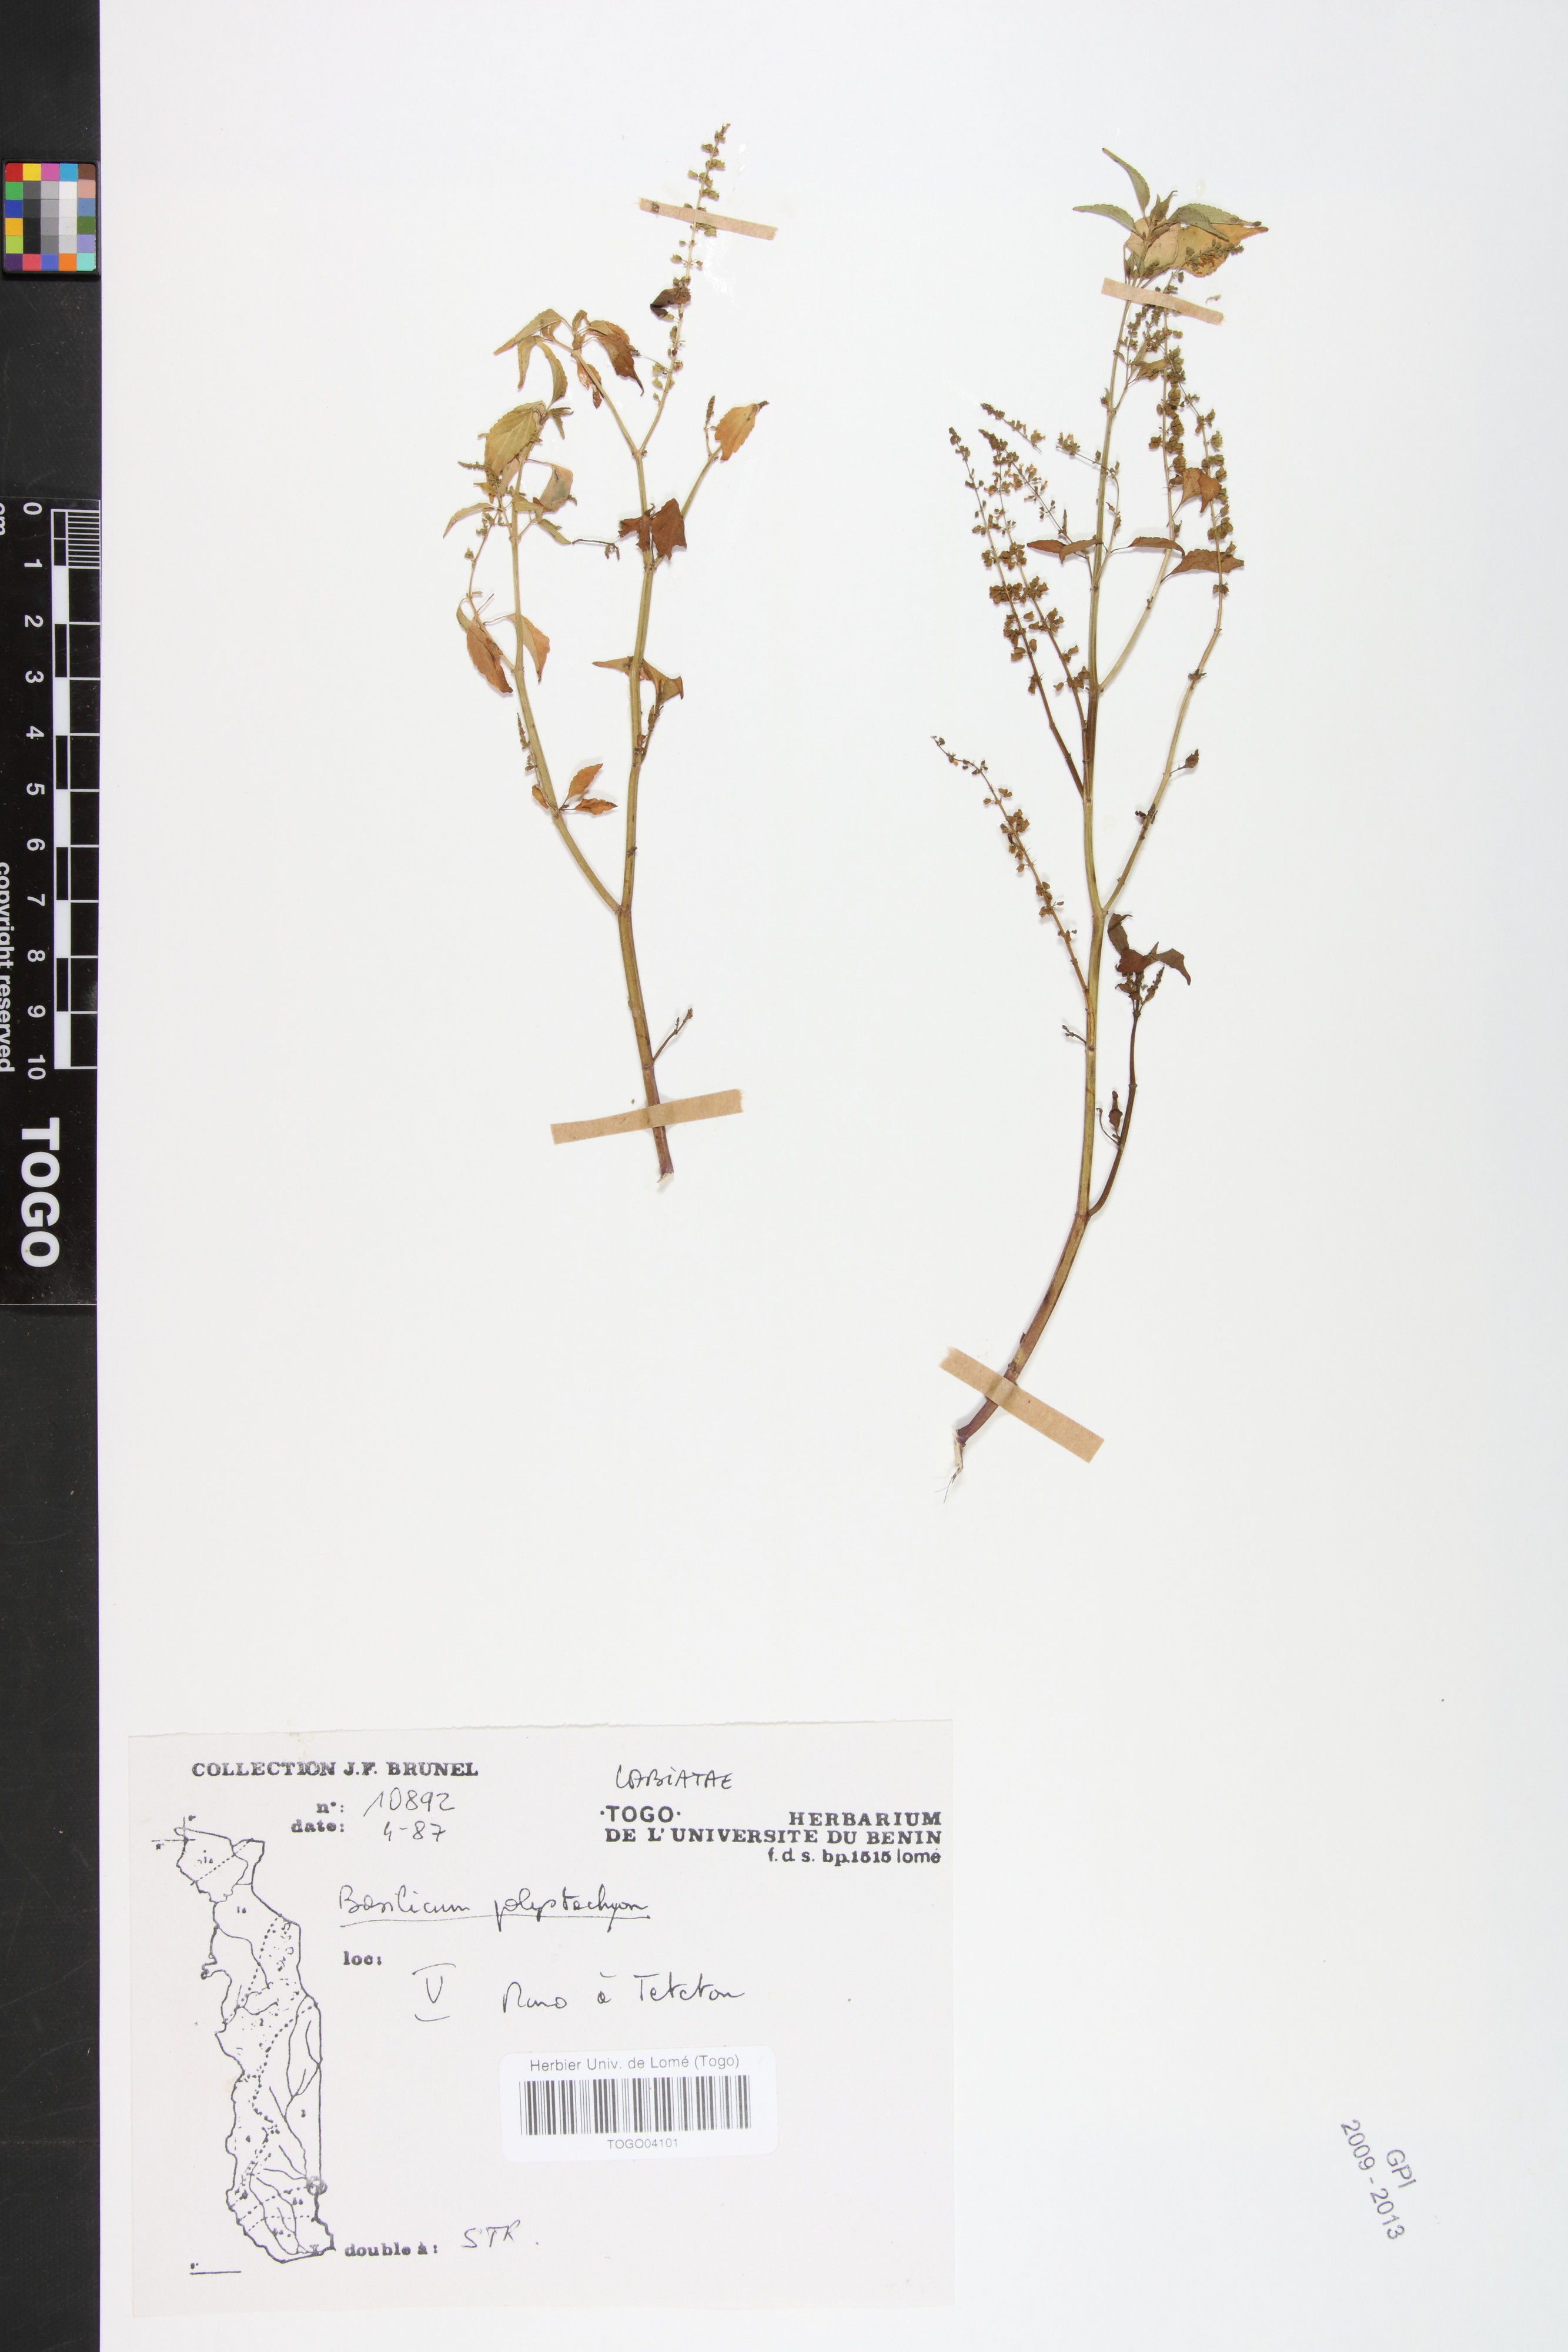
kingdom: Plantae
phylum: Tracheophyta
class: Magnoliopsida
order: Lamiales
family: Lamiaceae
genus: Basilicum
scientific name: Basilicum polystachyon
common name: Musk-basil
